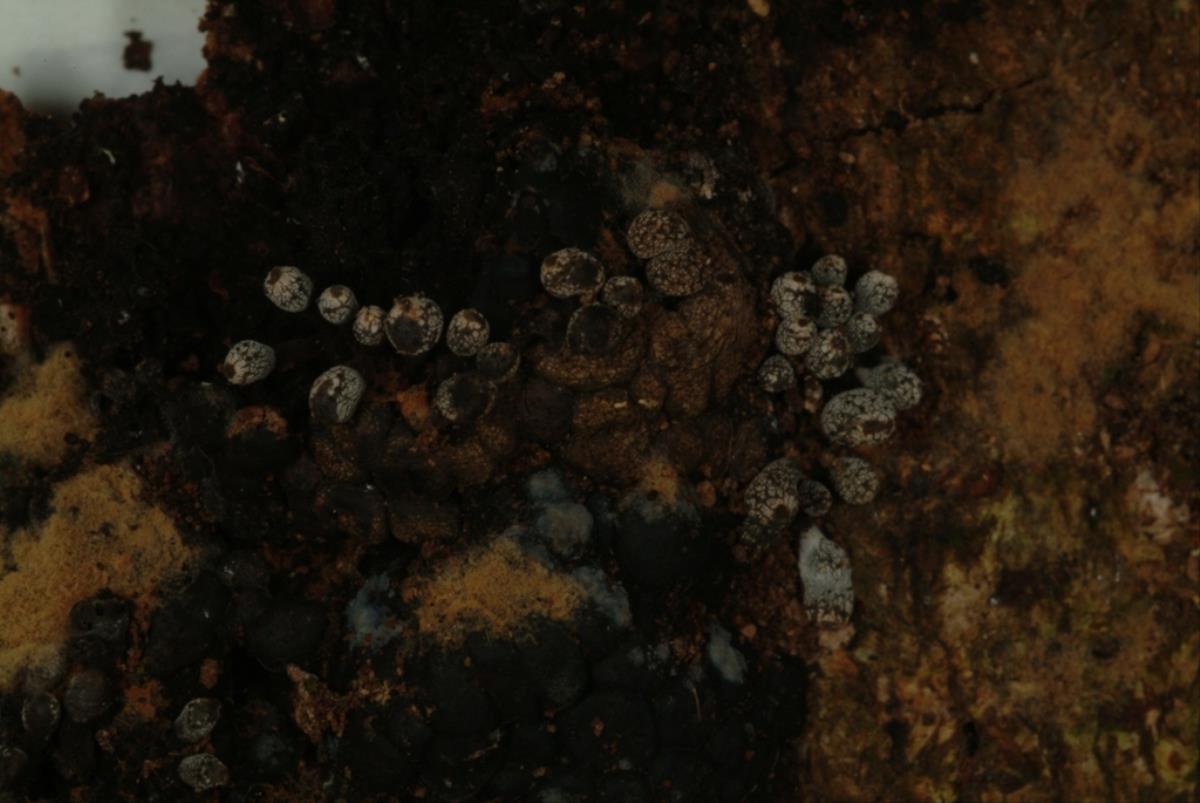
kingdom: Fungi
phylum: Ascomycota
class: Sordariomycetes
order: Xylariales
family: Xylariaceae
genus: Kretzschmaria
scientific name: Kretzschmaria clavus
